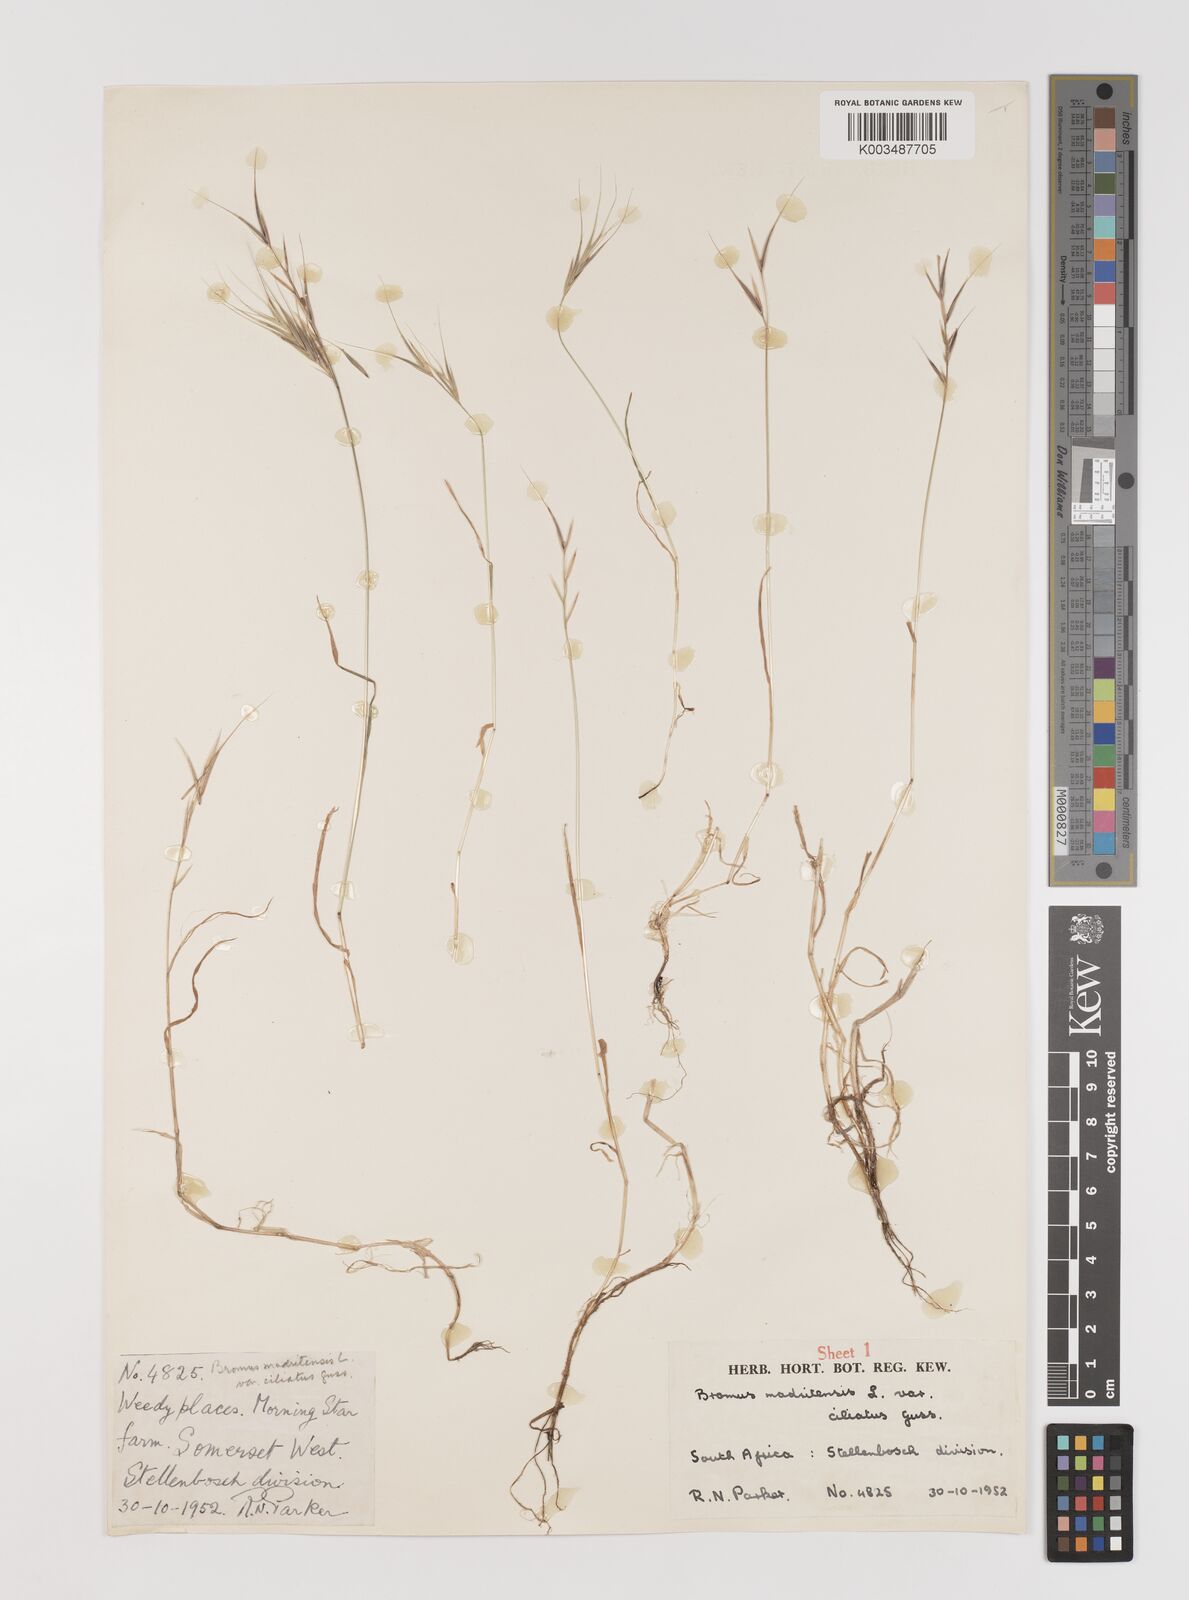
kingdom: Plantae
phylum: Tracheophyta
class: Liliopsida
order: Poales
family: Poaceae
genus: Bromus
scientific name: Bromus madritensis
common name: Compact brome
